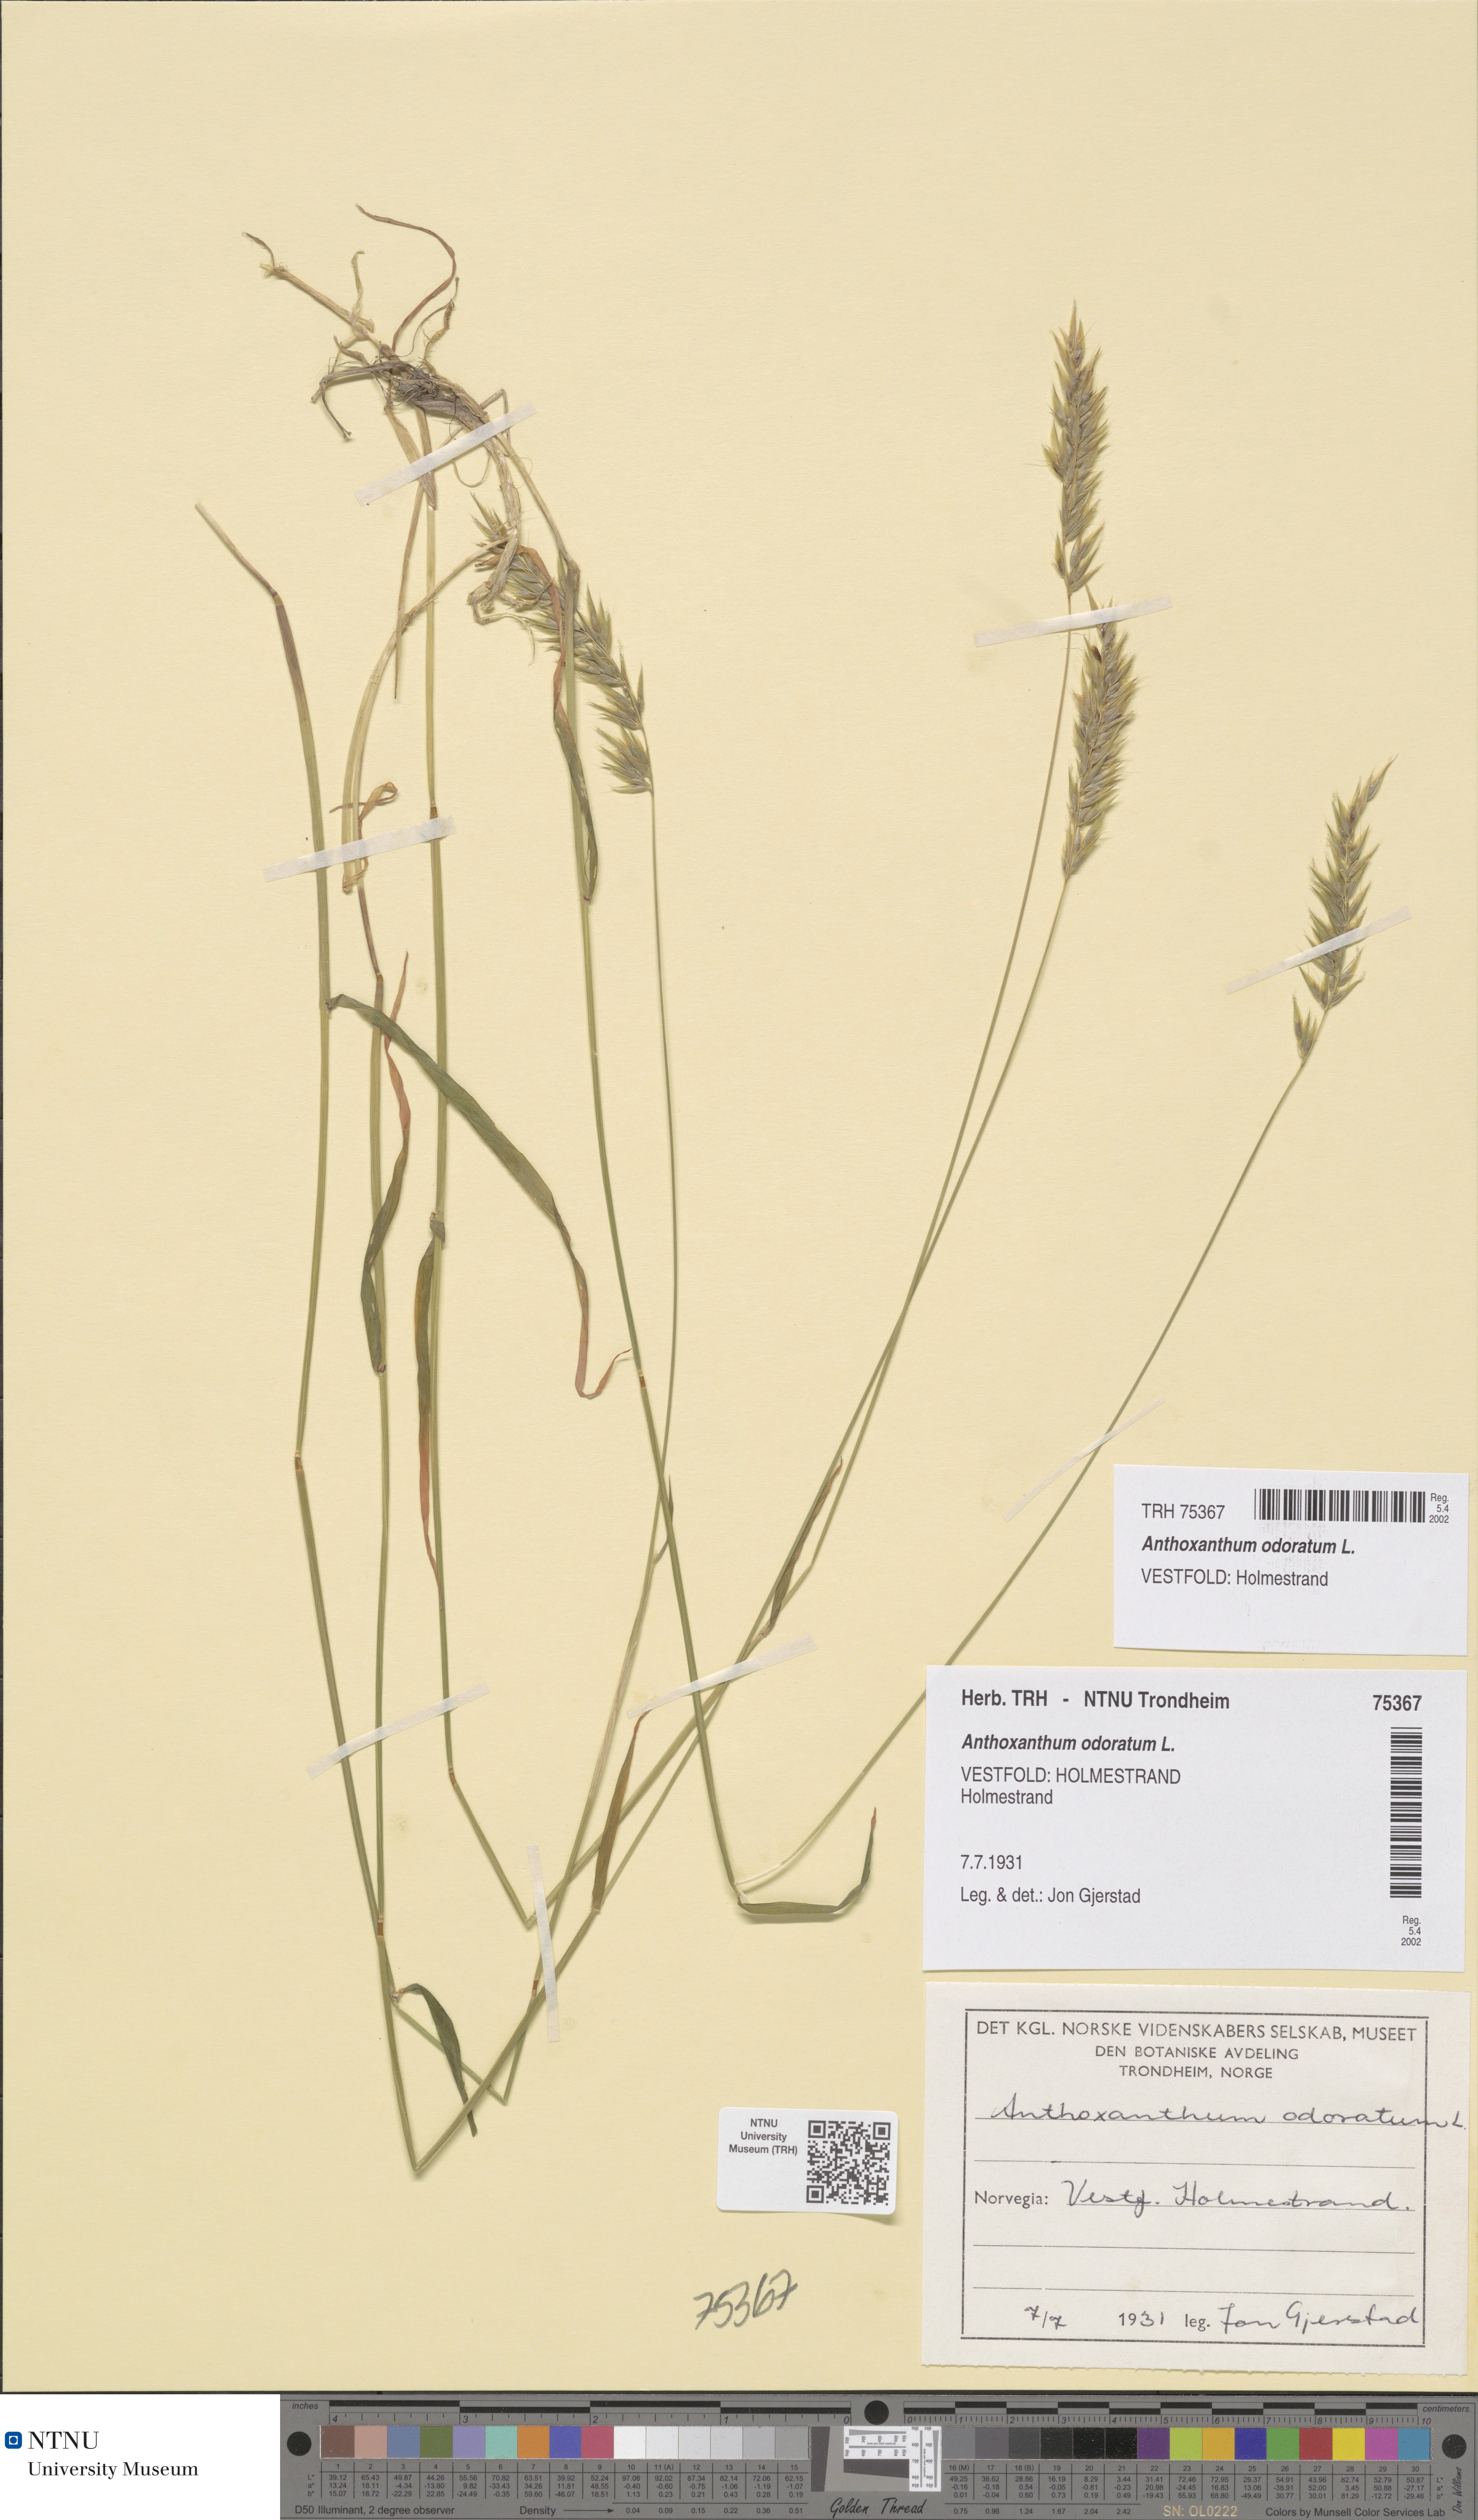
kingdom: Plantae
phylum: Tracheophyta
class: Liliopsida
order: Poales
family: Poaceae
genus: Anthoxanthum
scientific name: Anthoxanthum odoratum
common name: Sweet vernalgrass
